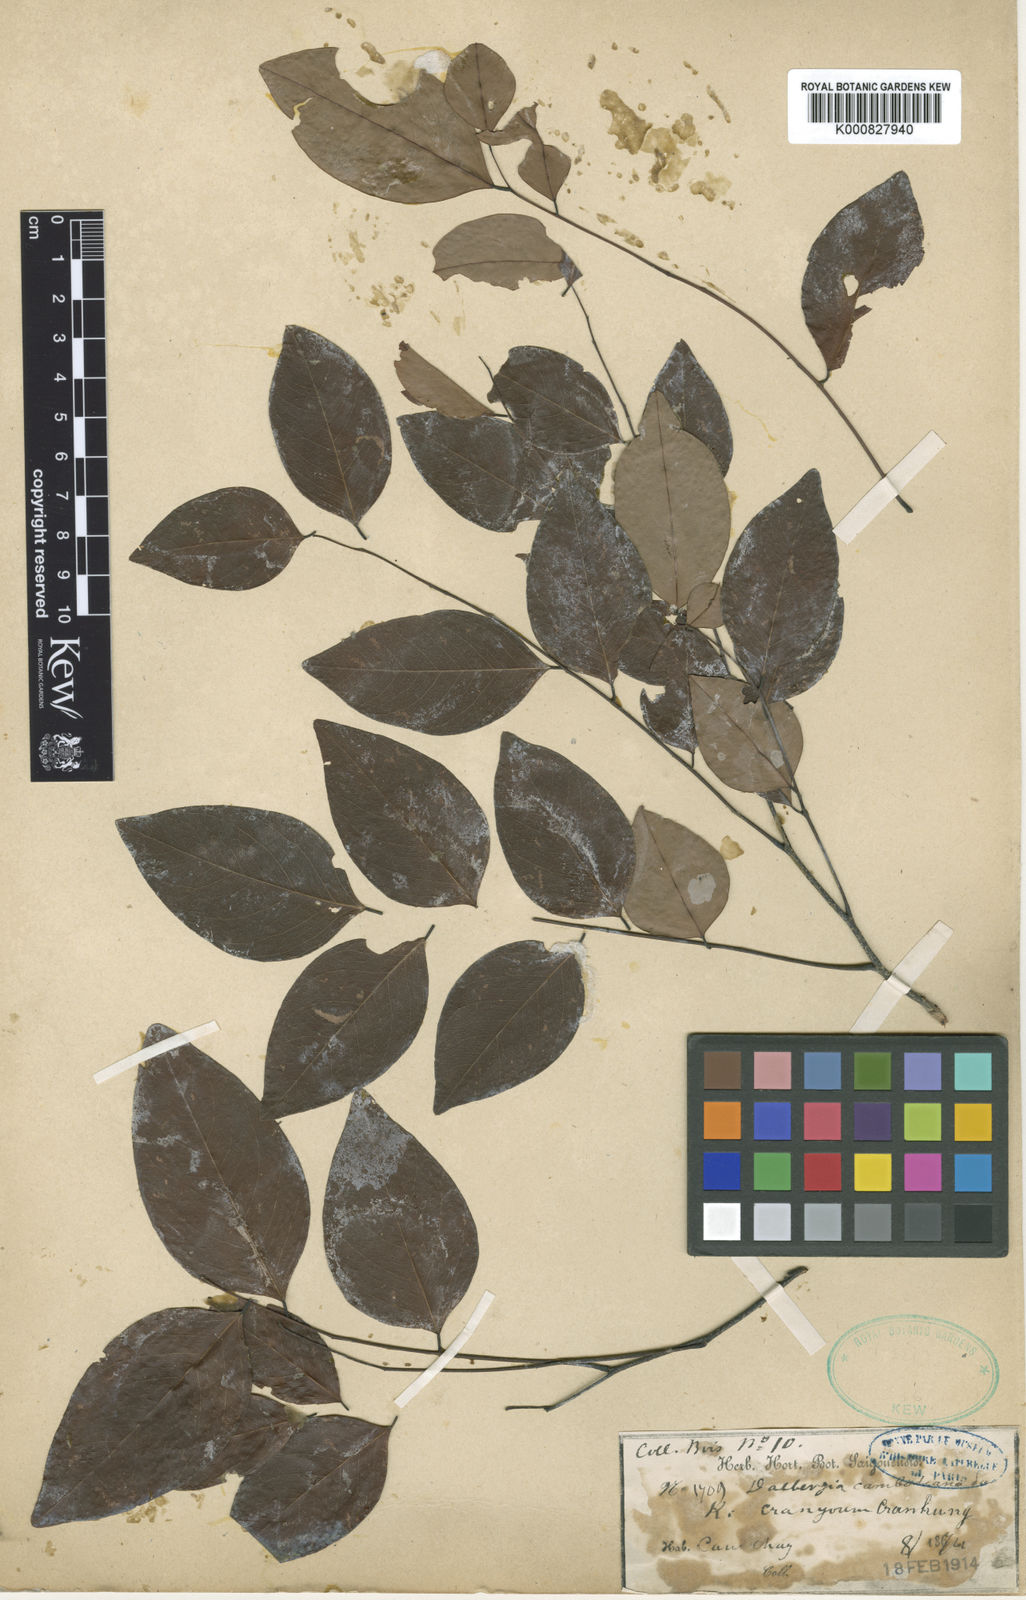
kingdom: Plantae
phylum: Tracheophyta
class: Magnoliopsida
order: Fabales
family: Fabaceae
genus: Dalbergia
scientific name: Dalbergia cochinchinensis
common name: Siamese rosewood
